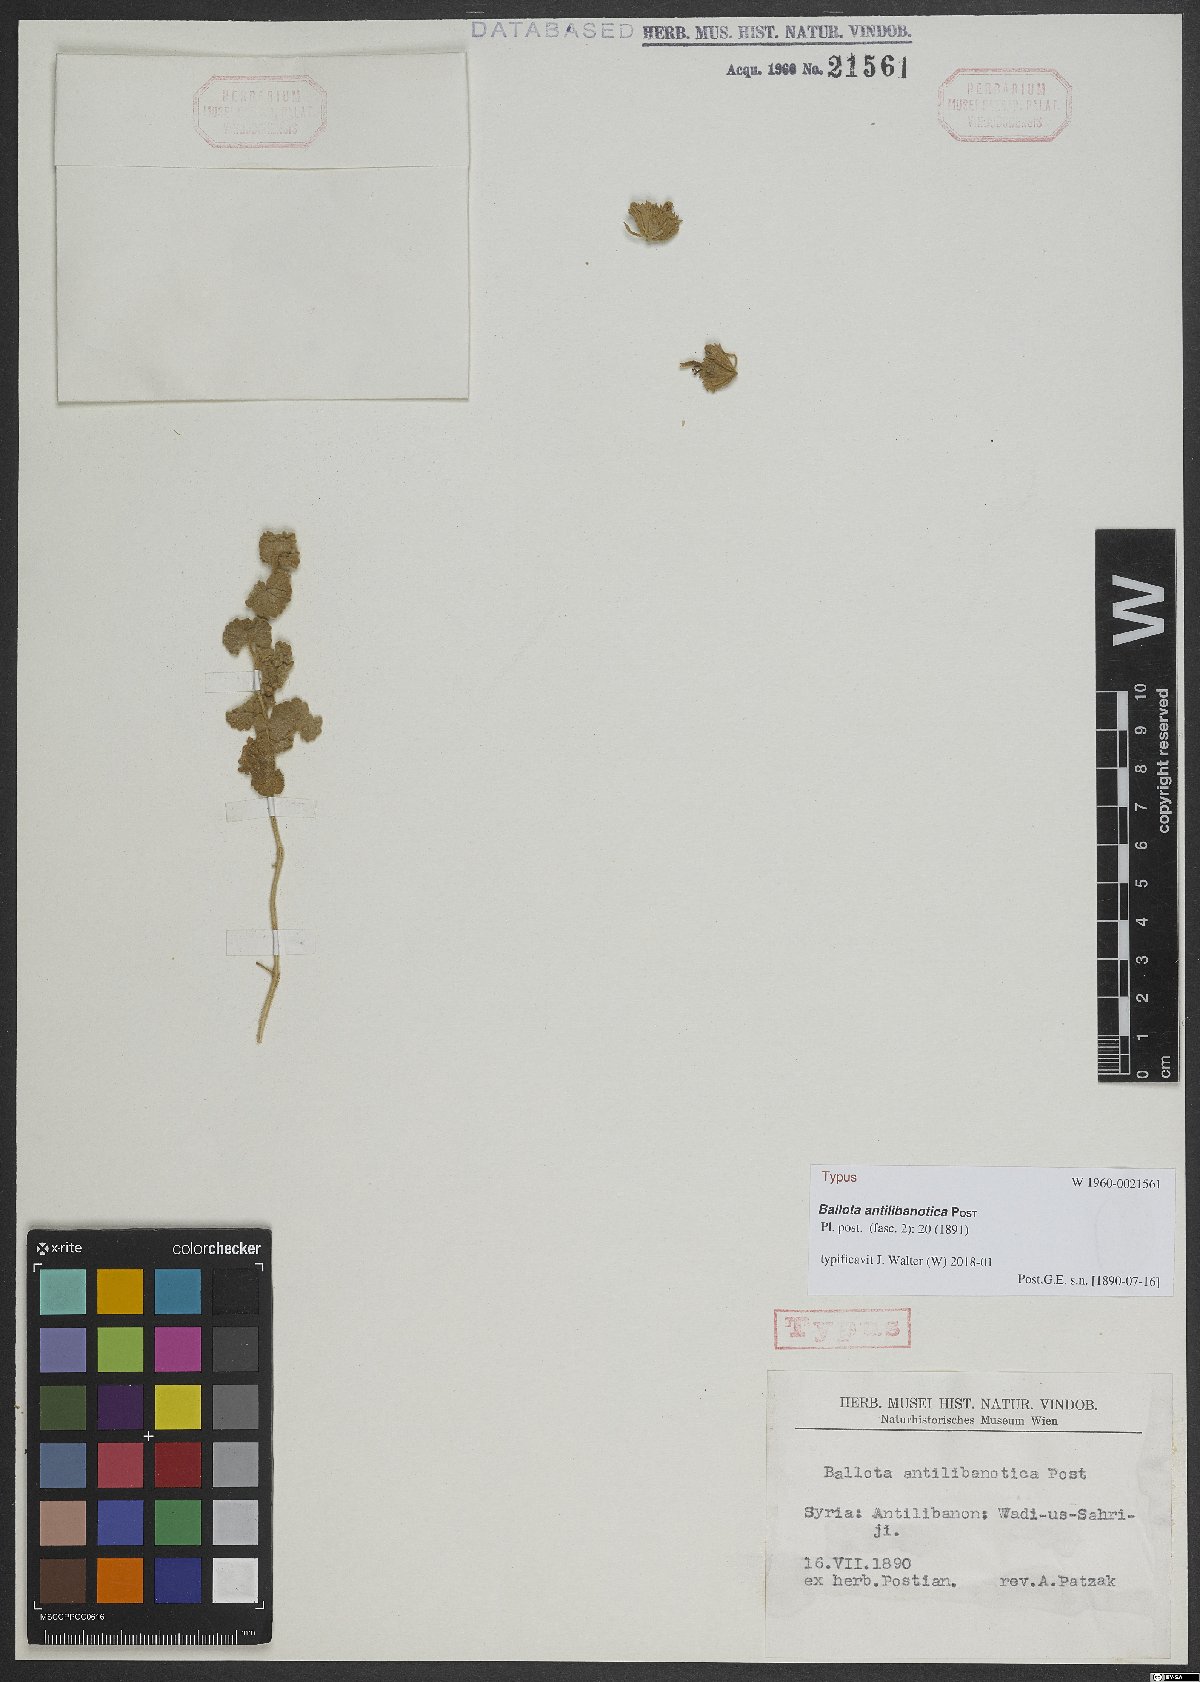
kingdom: Plantae
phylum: Tracheophyta
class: Magnoliopsida
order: Lamiales
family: Lamiaceae
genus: Ballota
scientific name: Ballota antilibanotica
